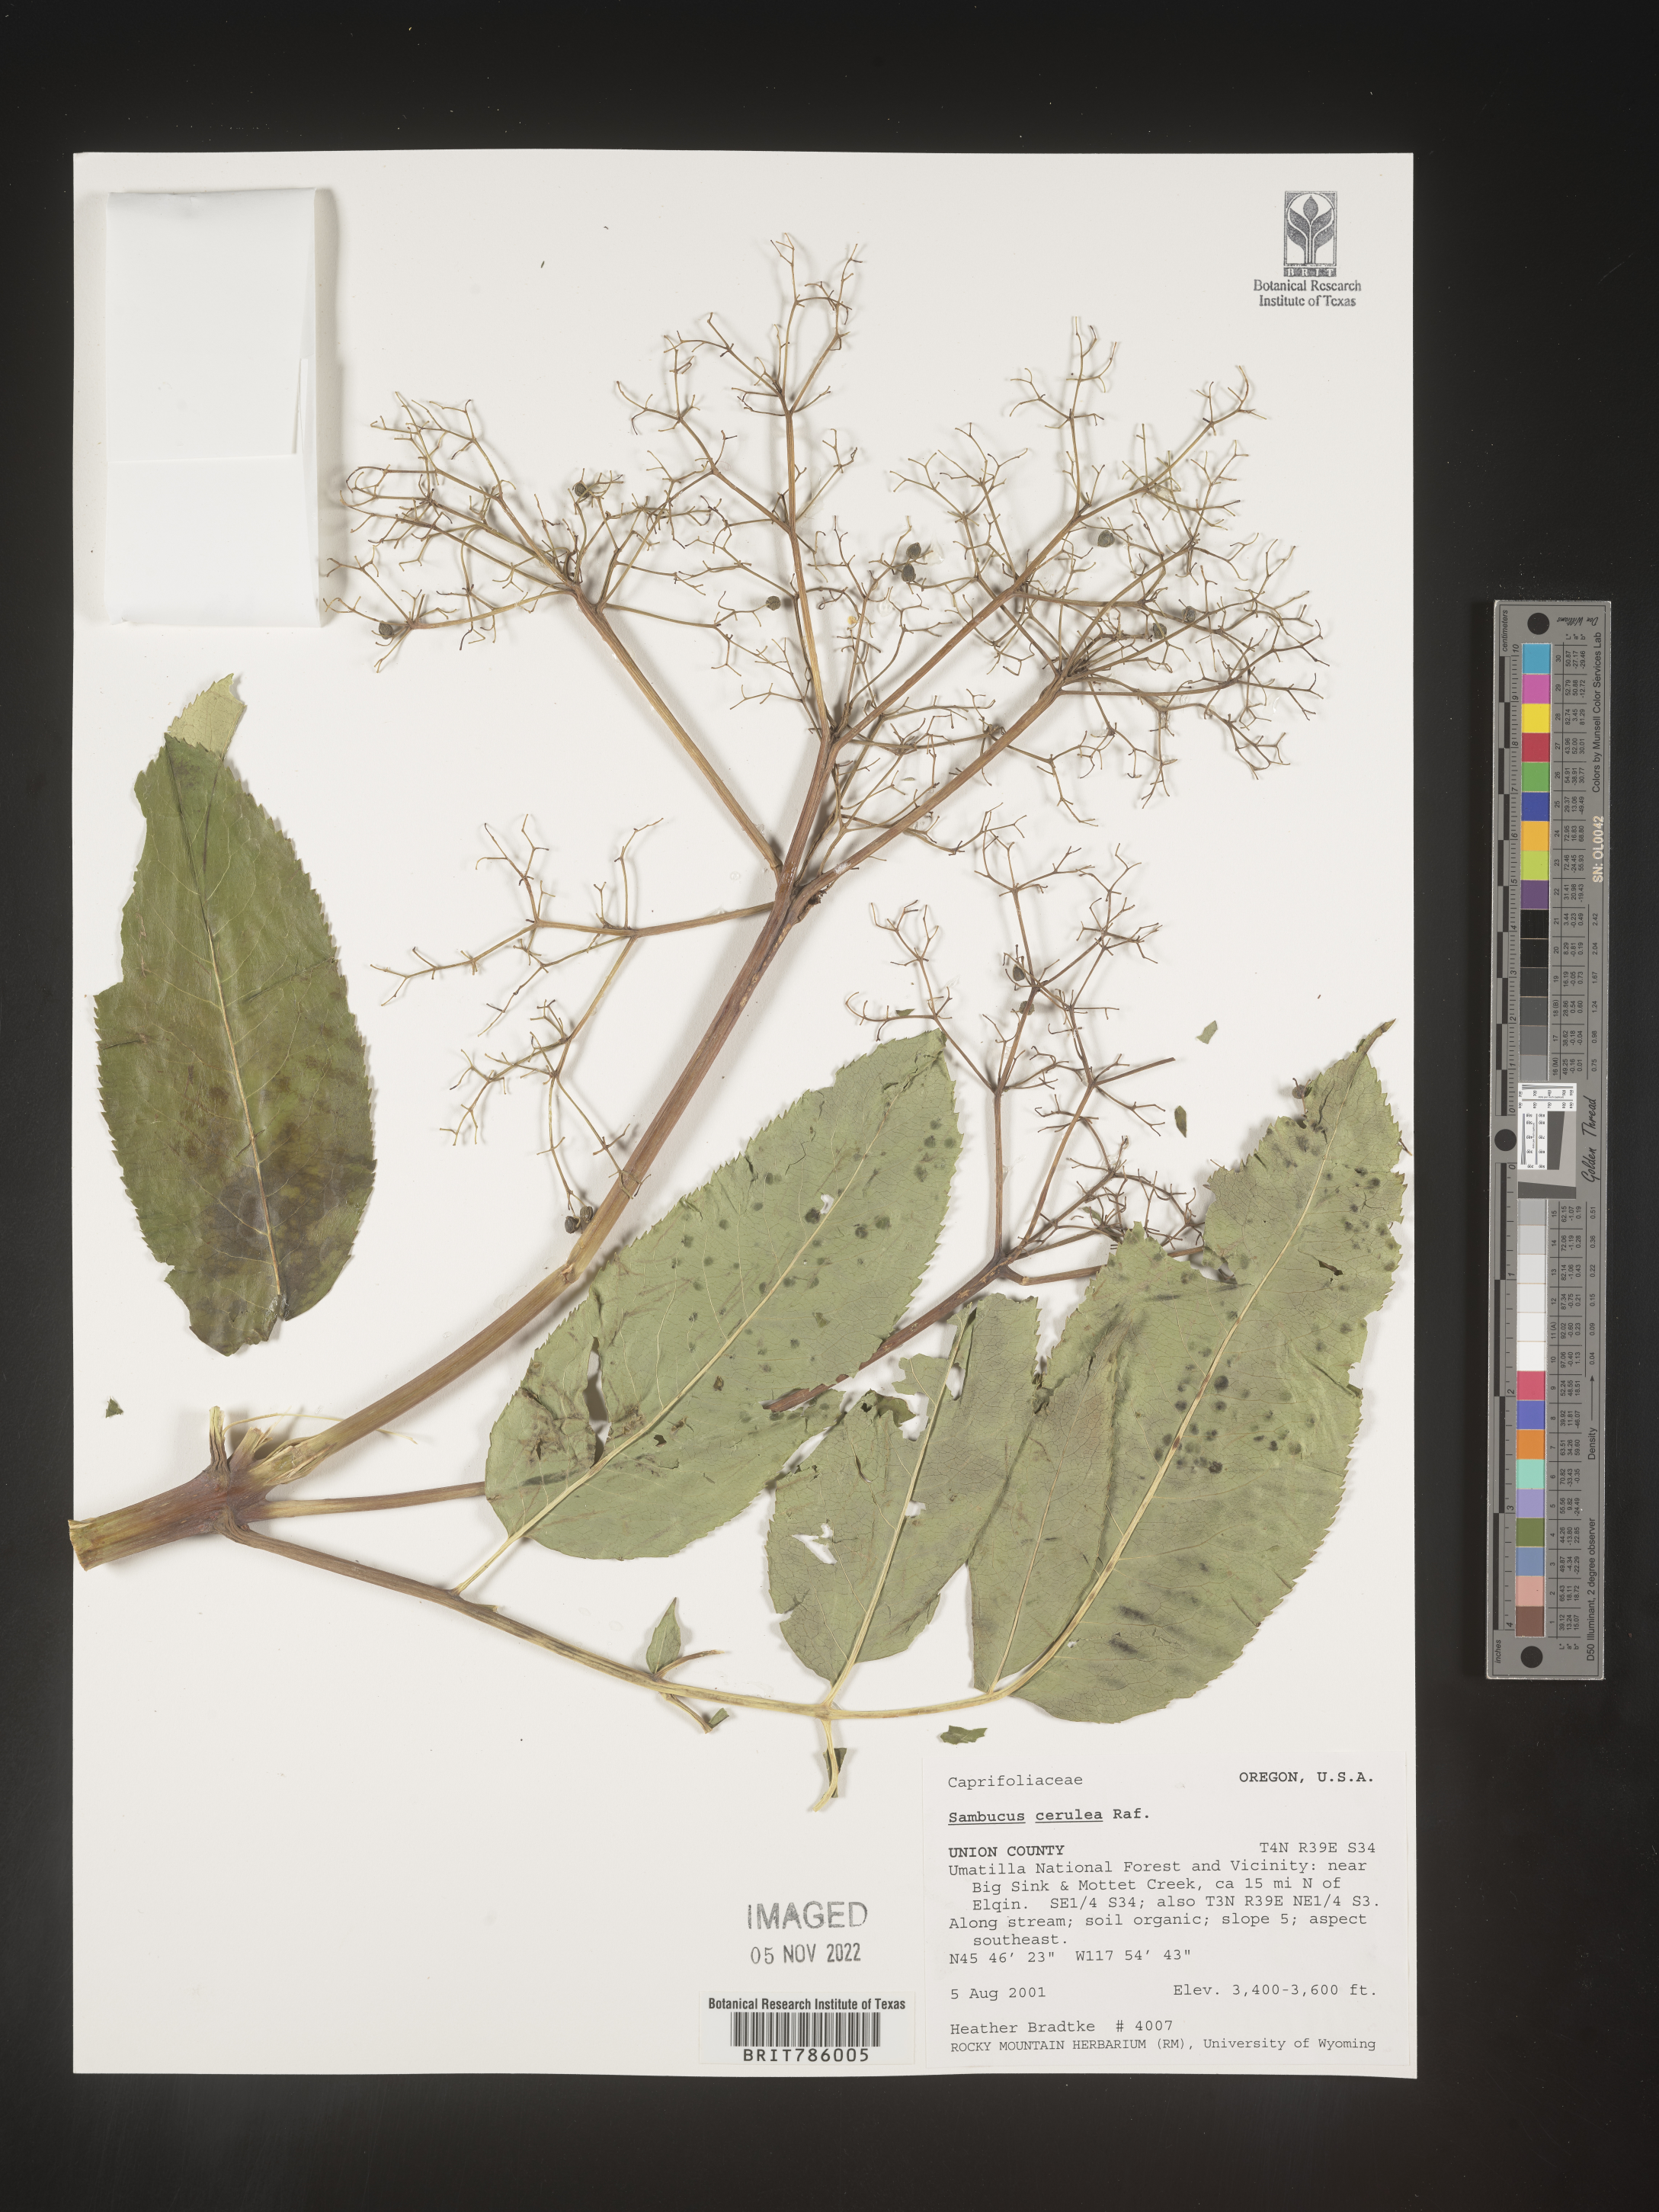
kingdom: Plantae
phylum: Tracheophyta
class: Magnoliopsida
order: Dipsacales
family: Viburnaceae
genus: Sambucus
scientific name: Sambucus caerulea
